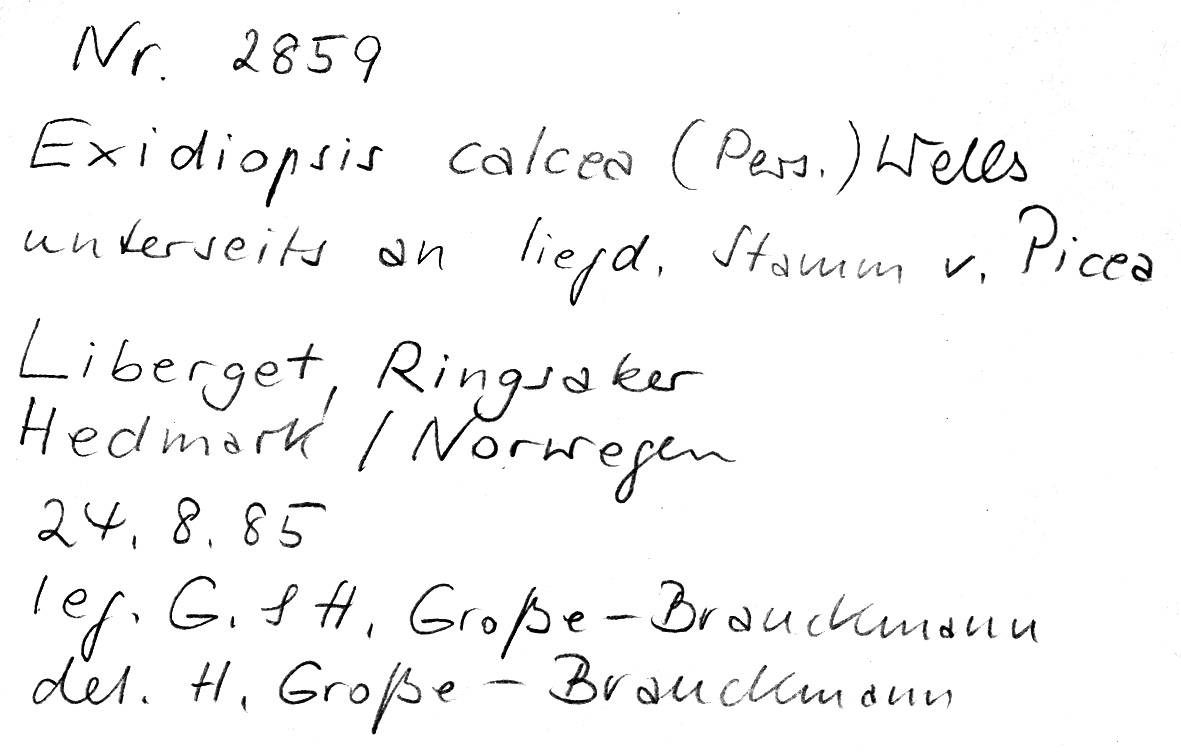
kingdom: Fungi
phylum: Basidiomycota
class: Agaricomycetes
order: Auriculariales
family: Auriculariaceae
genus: Alloexidiopsis
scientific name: Alloexidiopsis calcea
